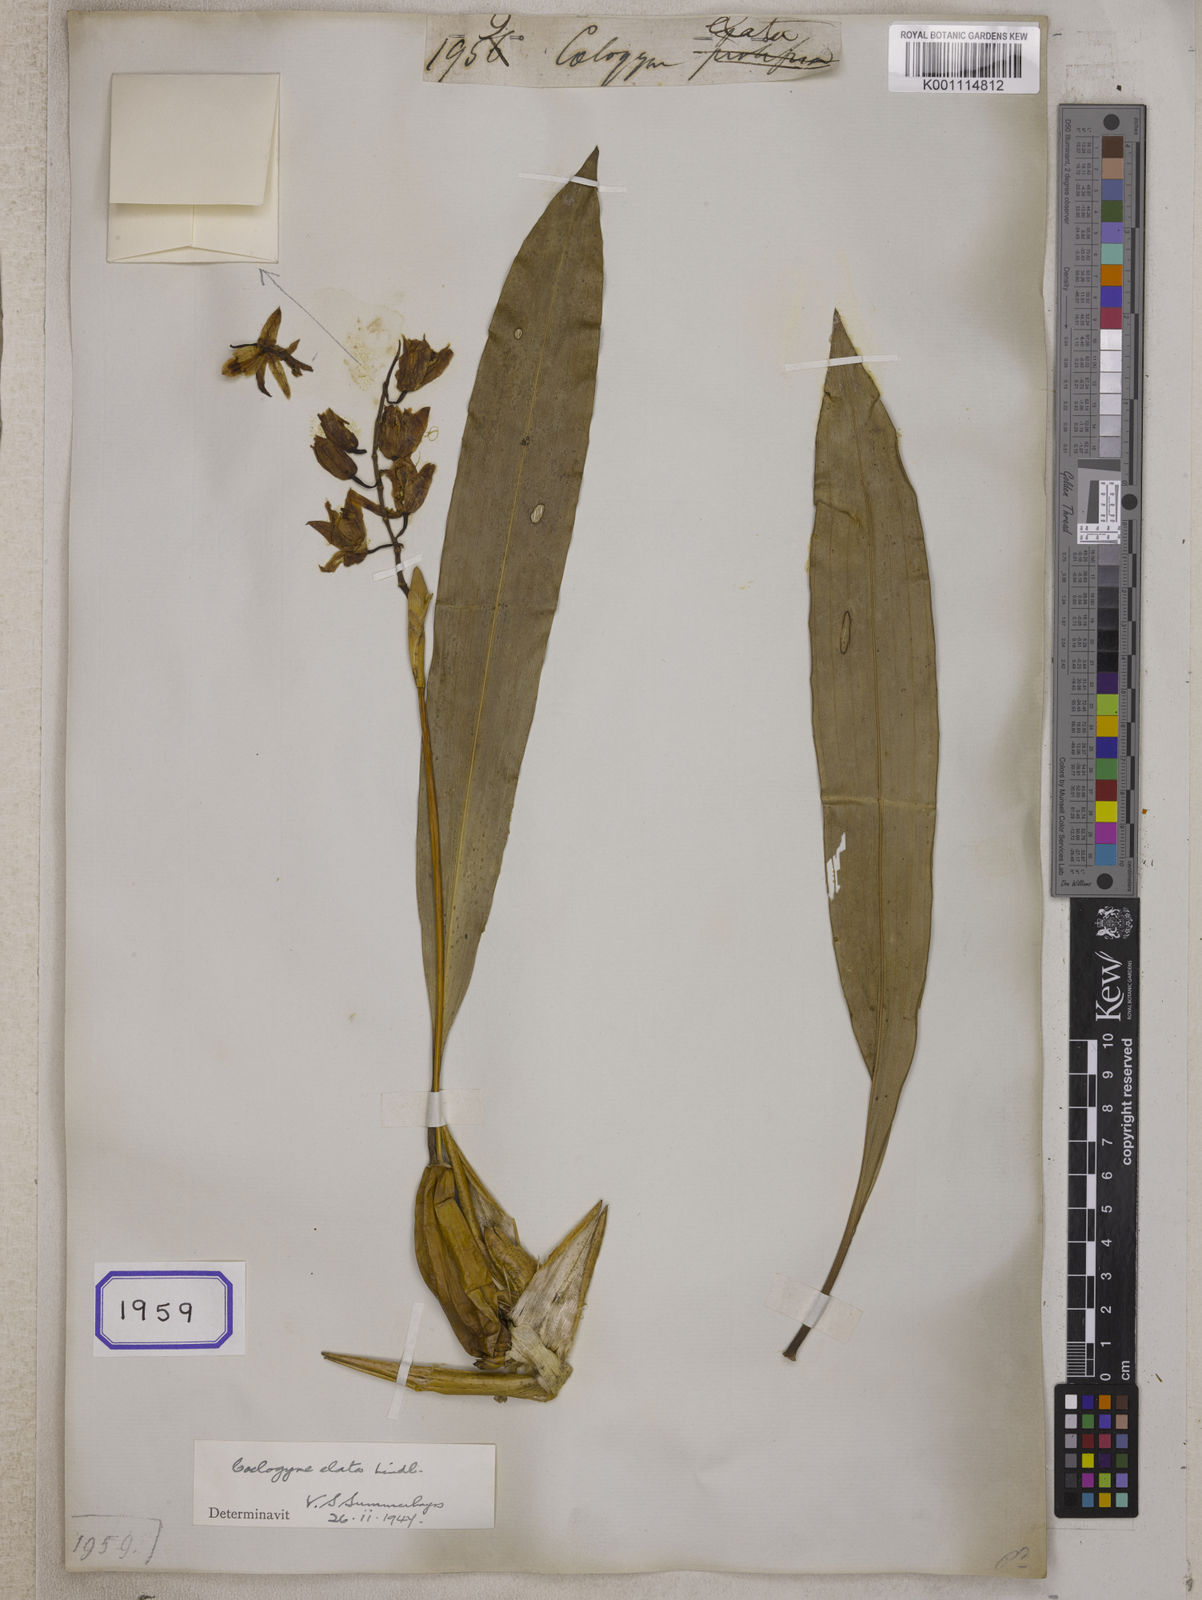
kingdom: Plantae
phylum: Tracheophyta
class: Liliopsida
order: Asparagales
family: Orchidaceae
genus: Coelogyne
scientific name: Coelogyne stricta
